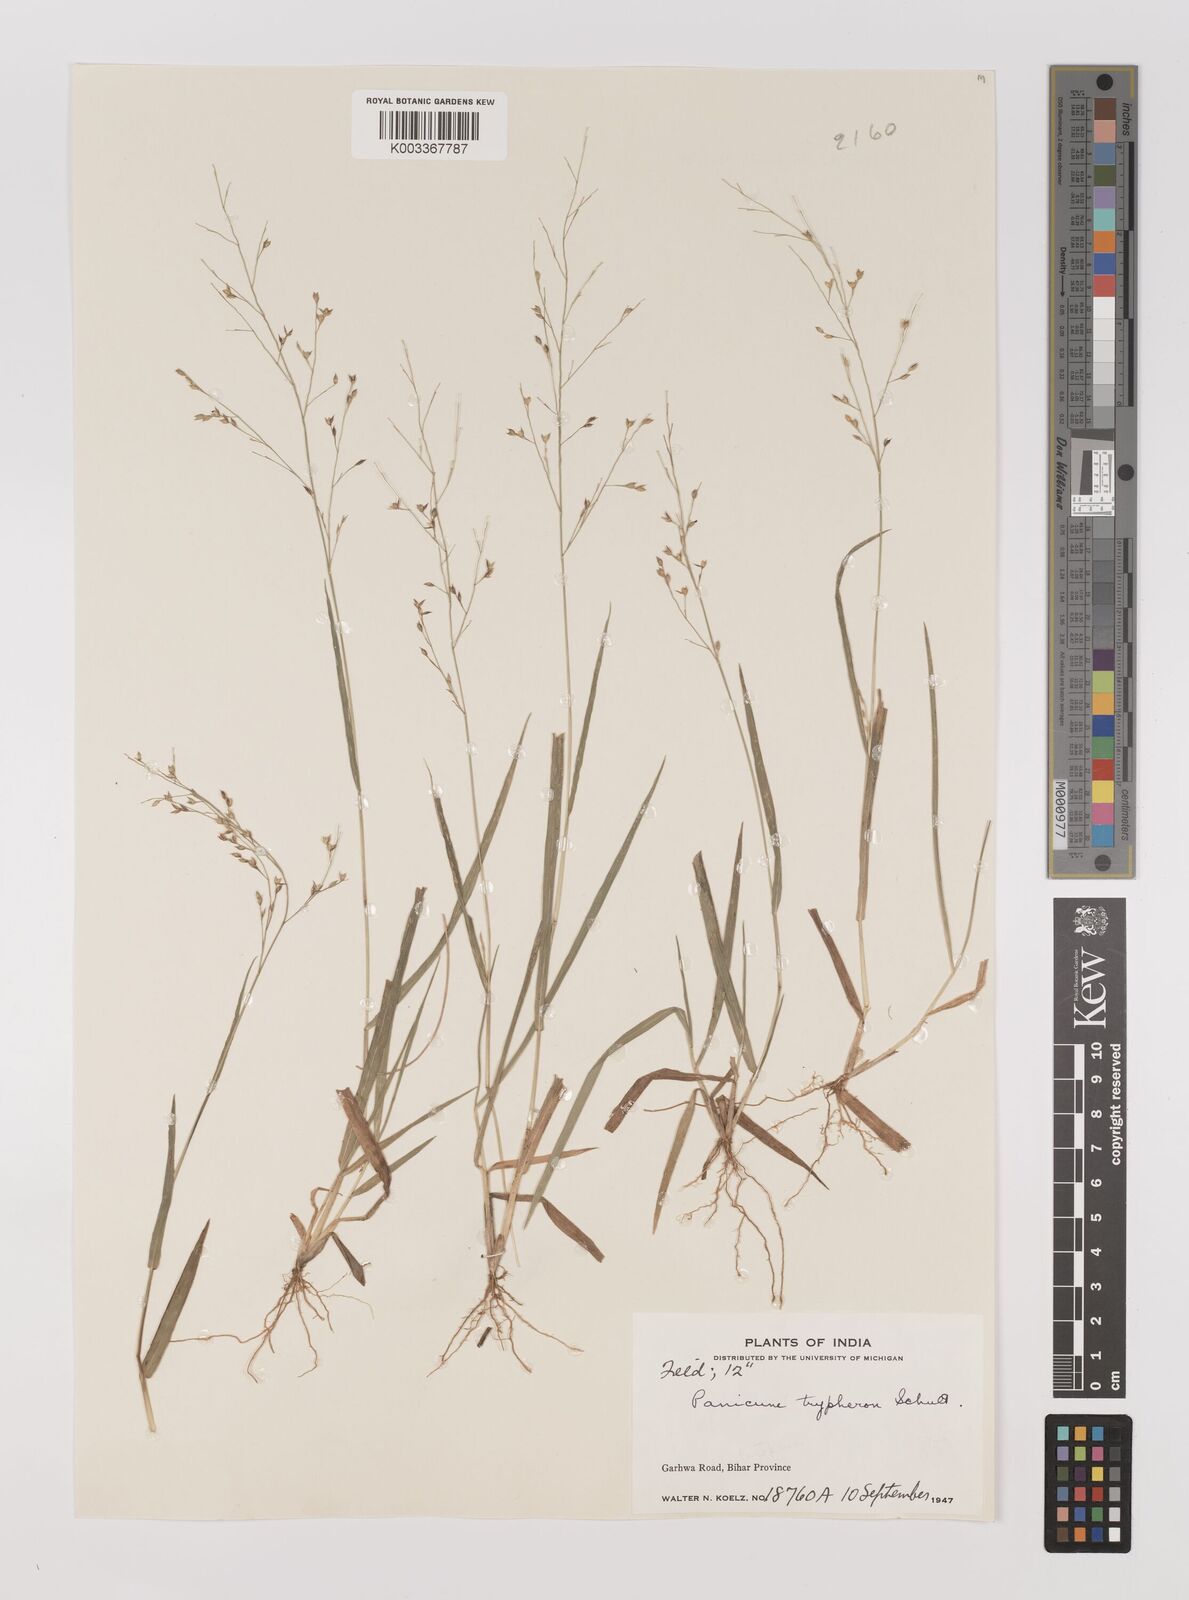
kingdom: Plantae
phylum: Tracheophyta
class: Liliopsida
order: Poales
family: Poaceae
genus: Panicum
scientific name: Panicum curviflorum
